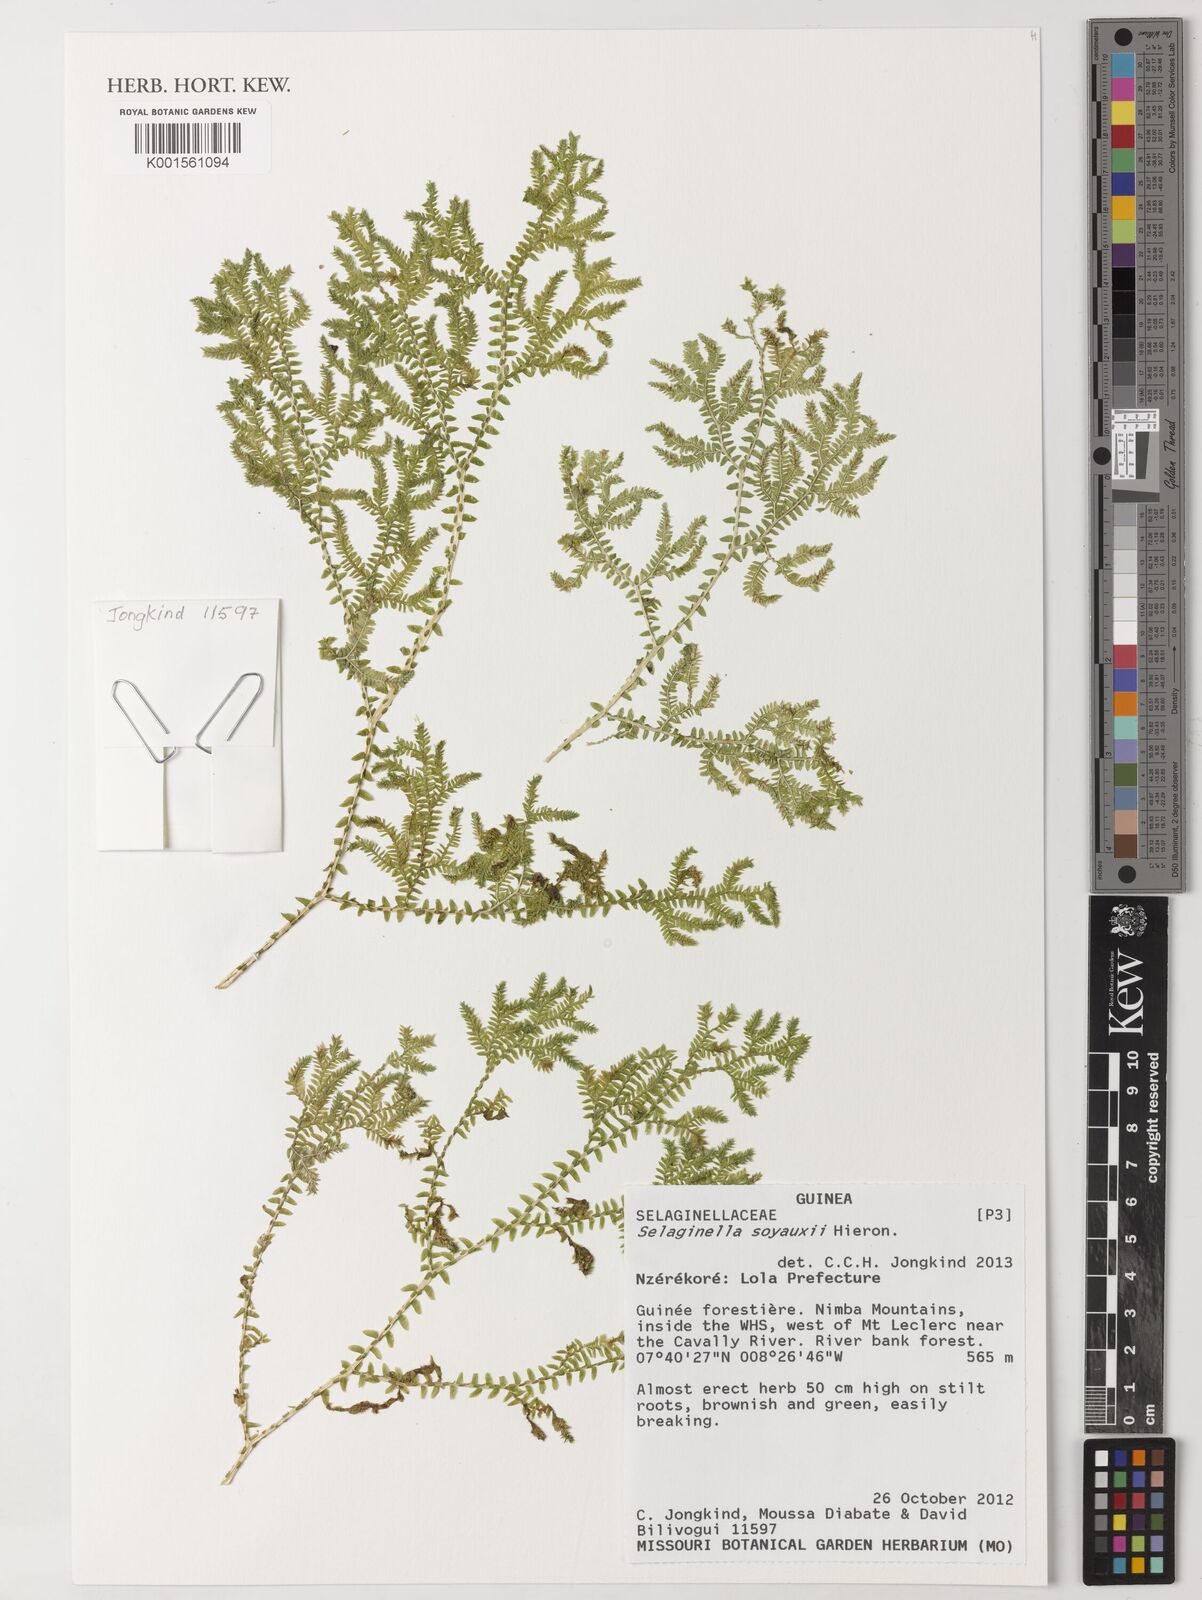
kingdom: Plantae
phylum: Tracheophyta
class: Lycopodiopsida
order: Selaginellales
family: Selaginellaceae
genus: Selaginella
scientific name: Selaginella soyauxii
